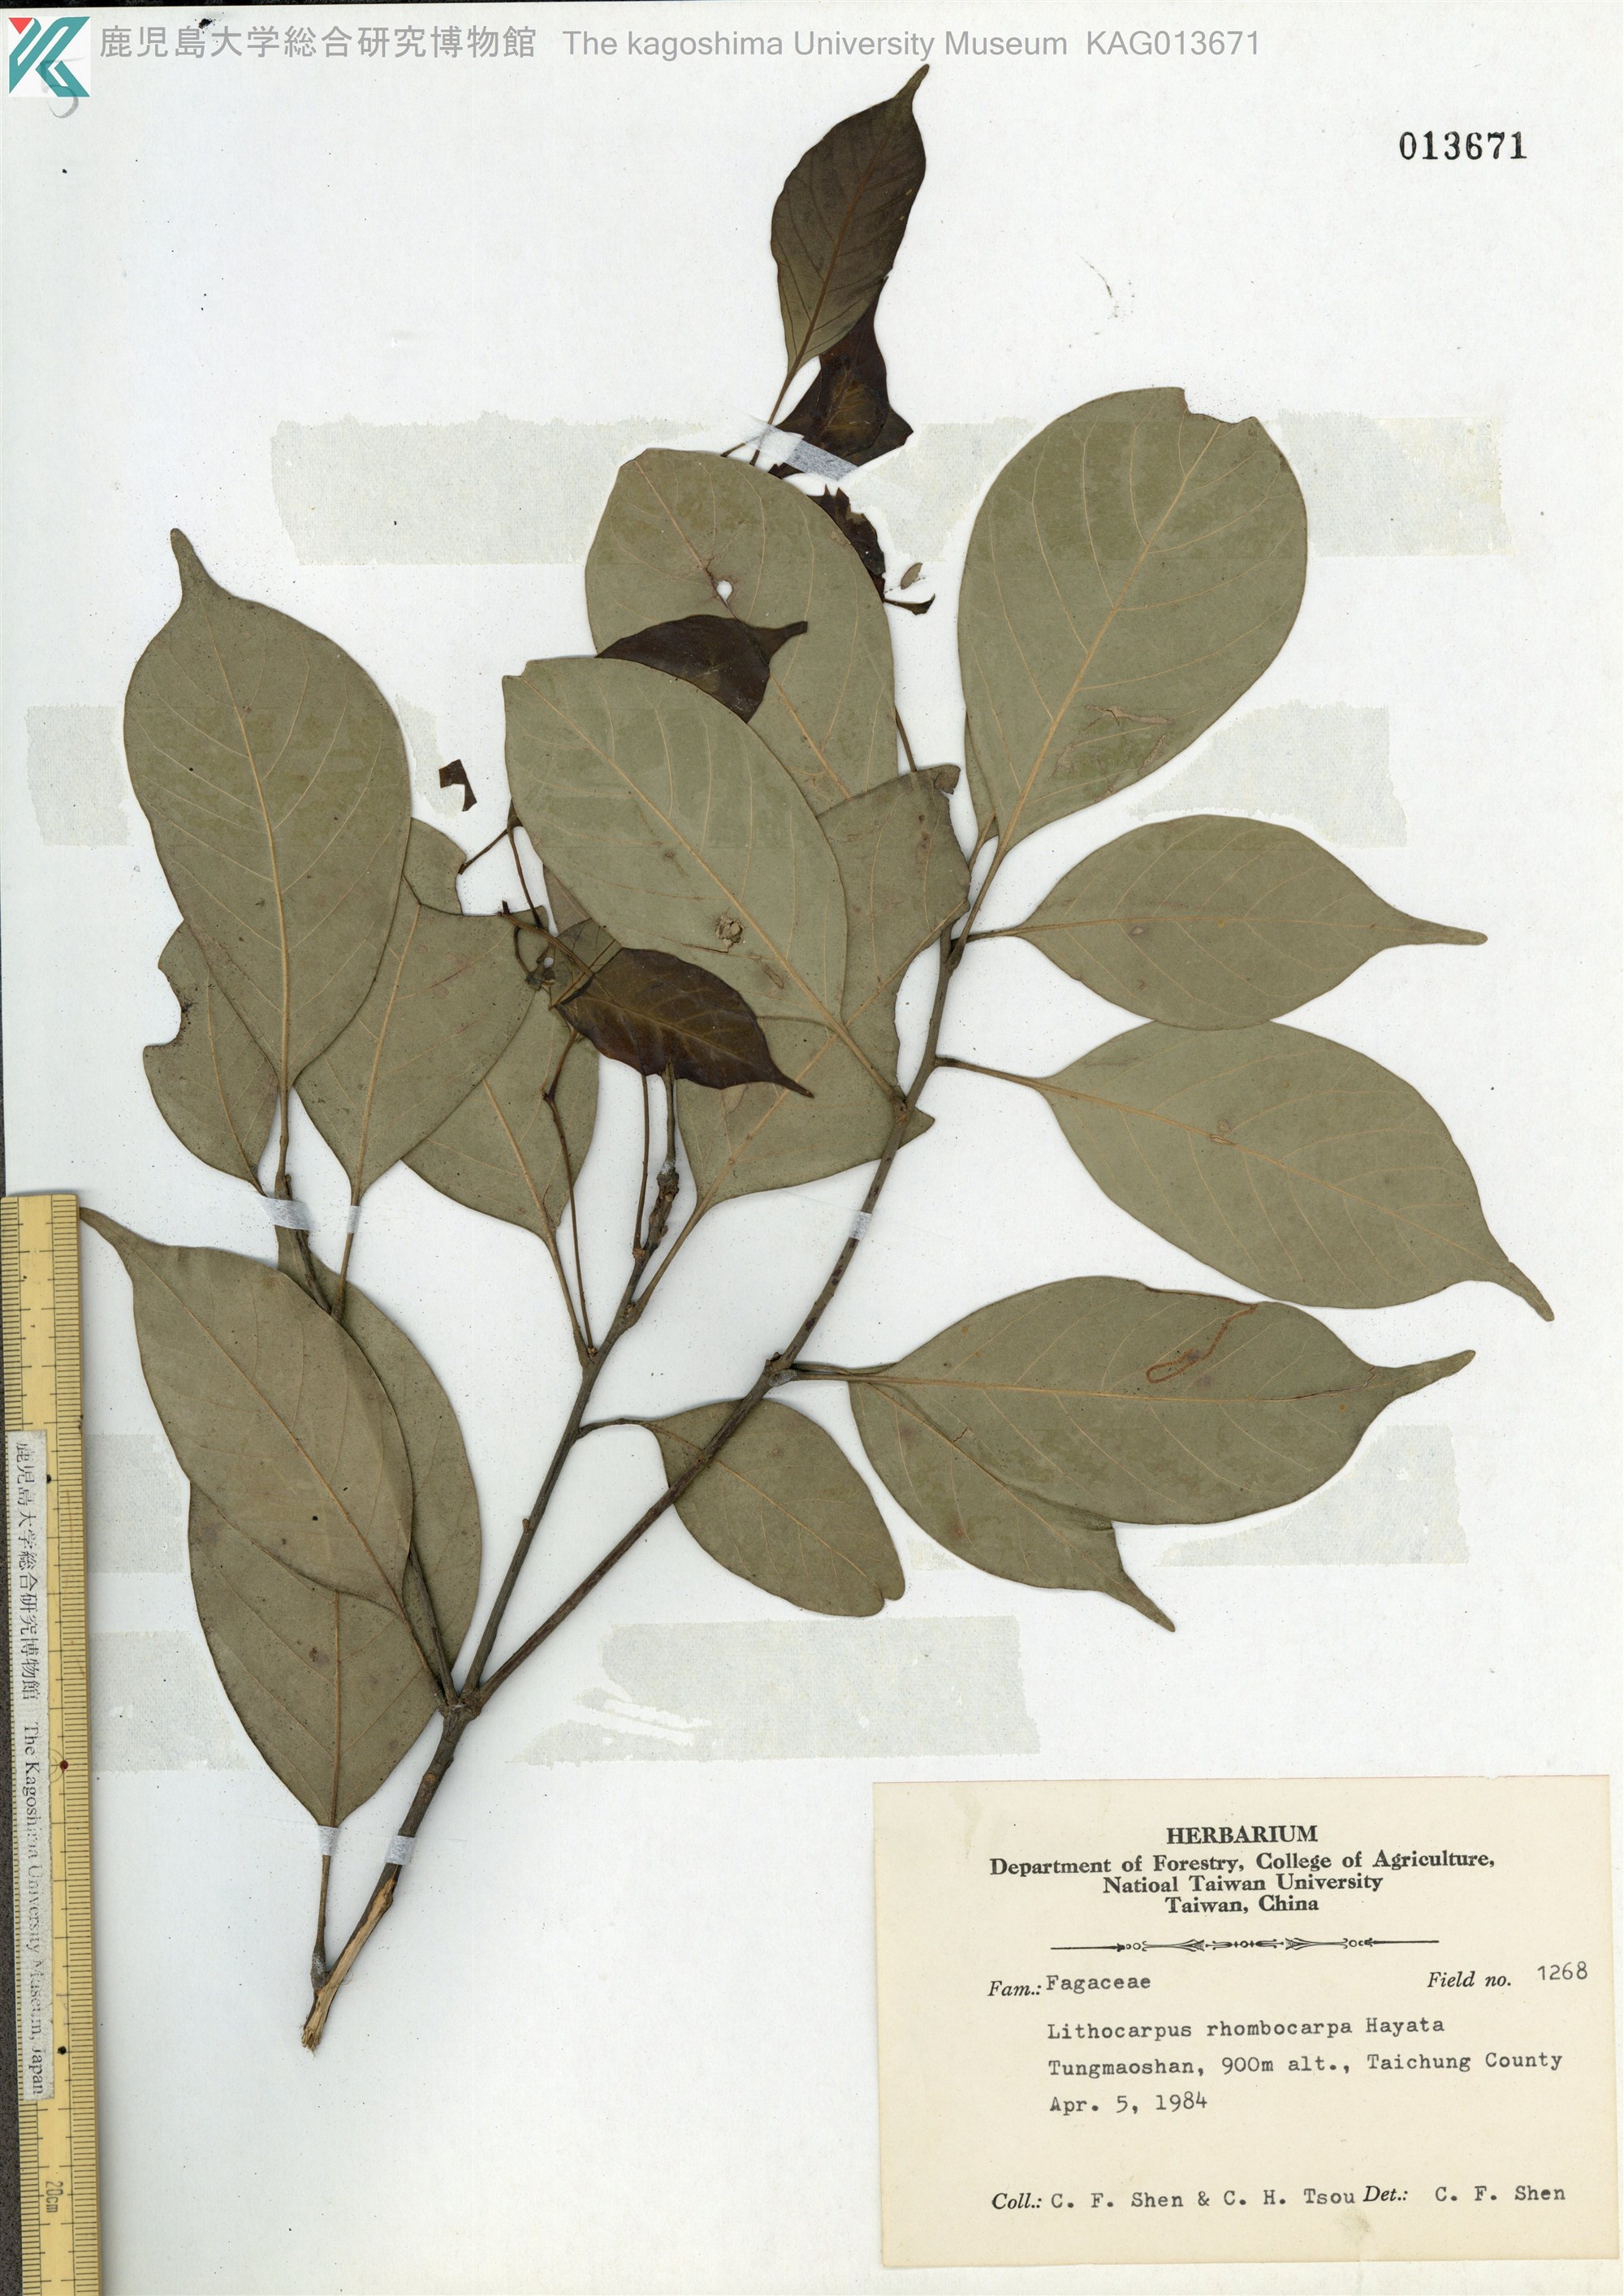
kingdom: Plantae
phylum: Tracheophyta
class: Magnoliopsida
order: Fagales
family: Fagaceae
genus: Lithocarpus
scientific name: Lithocarpus taitoensis
